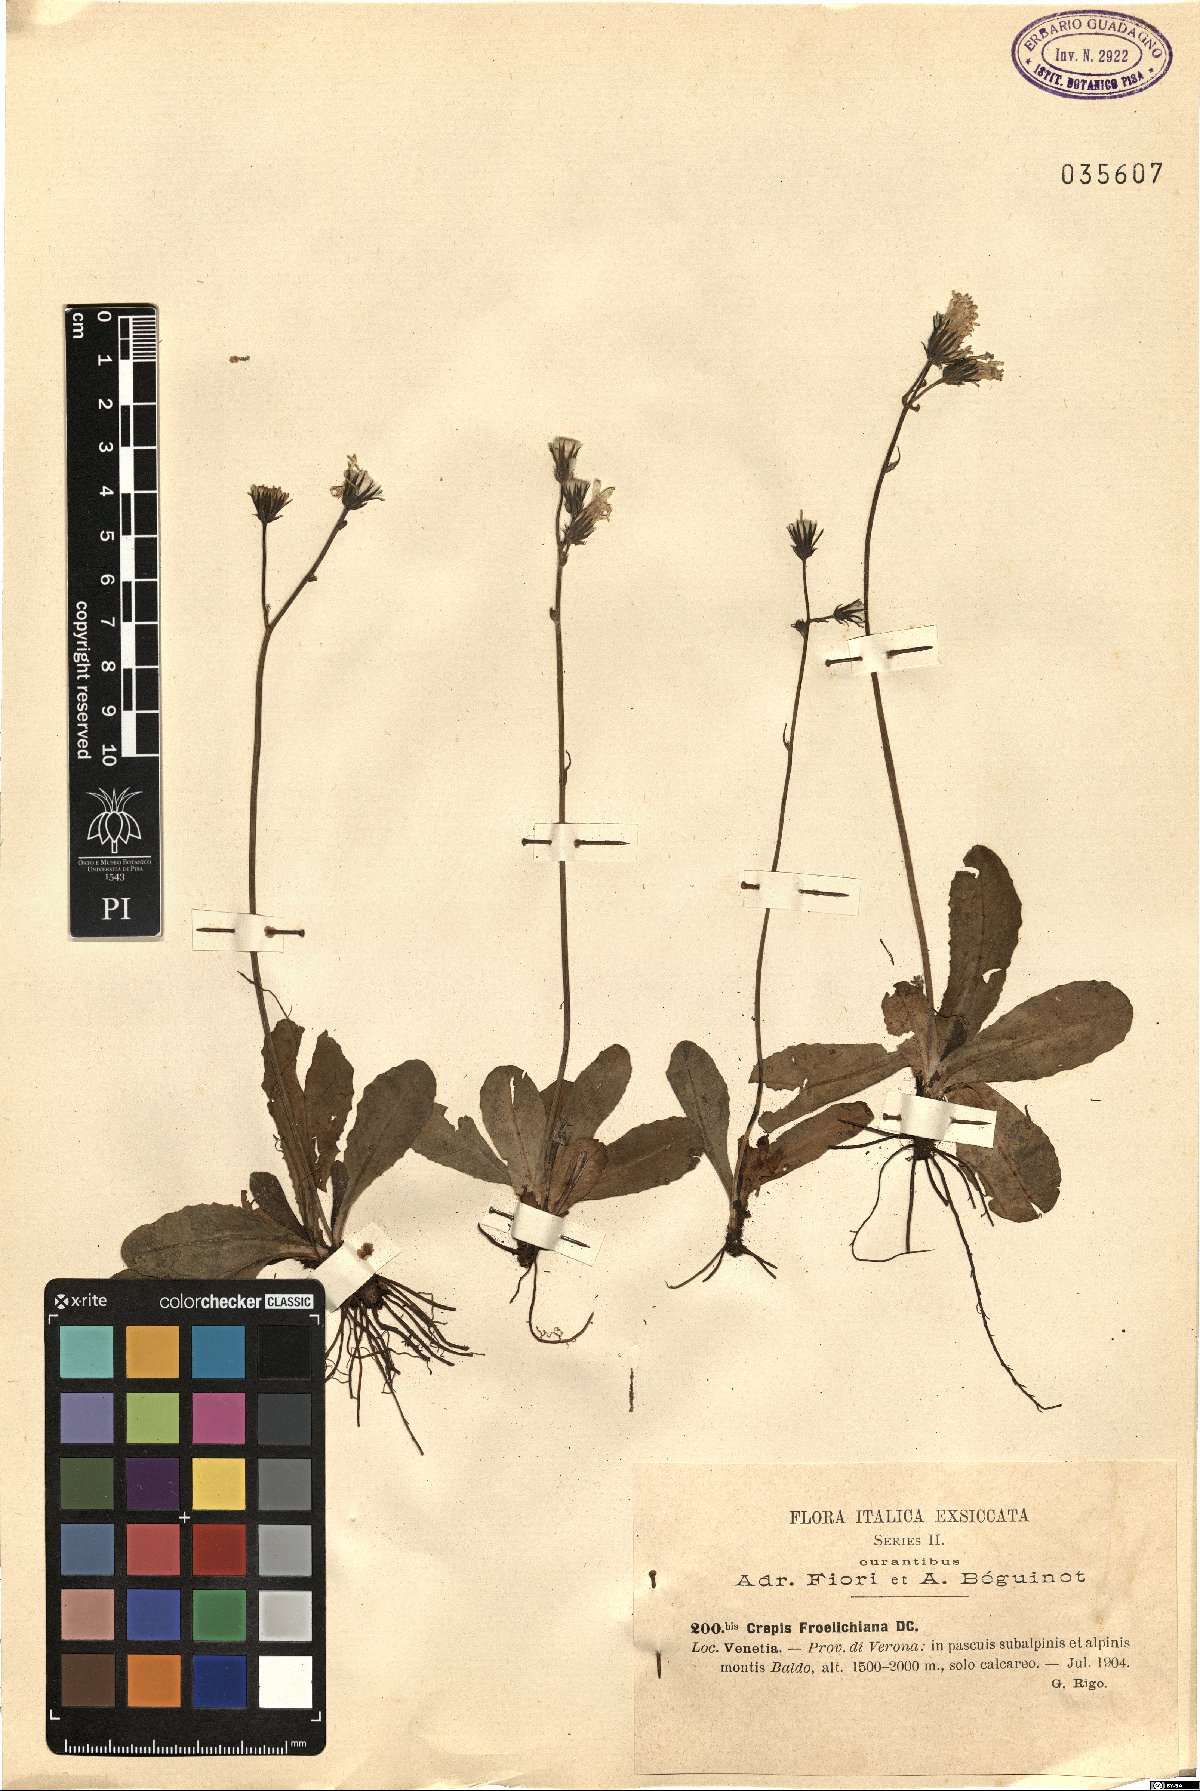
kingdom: Plantae
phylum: Tracheophyta
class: Magnoliopsida
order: Asterales
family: Asteraceae
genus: Crepis
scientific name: Crepis froelichiana
